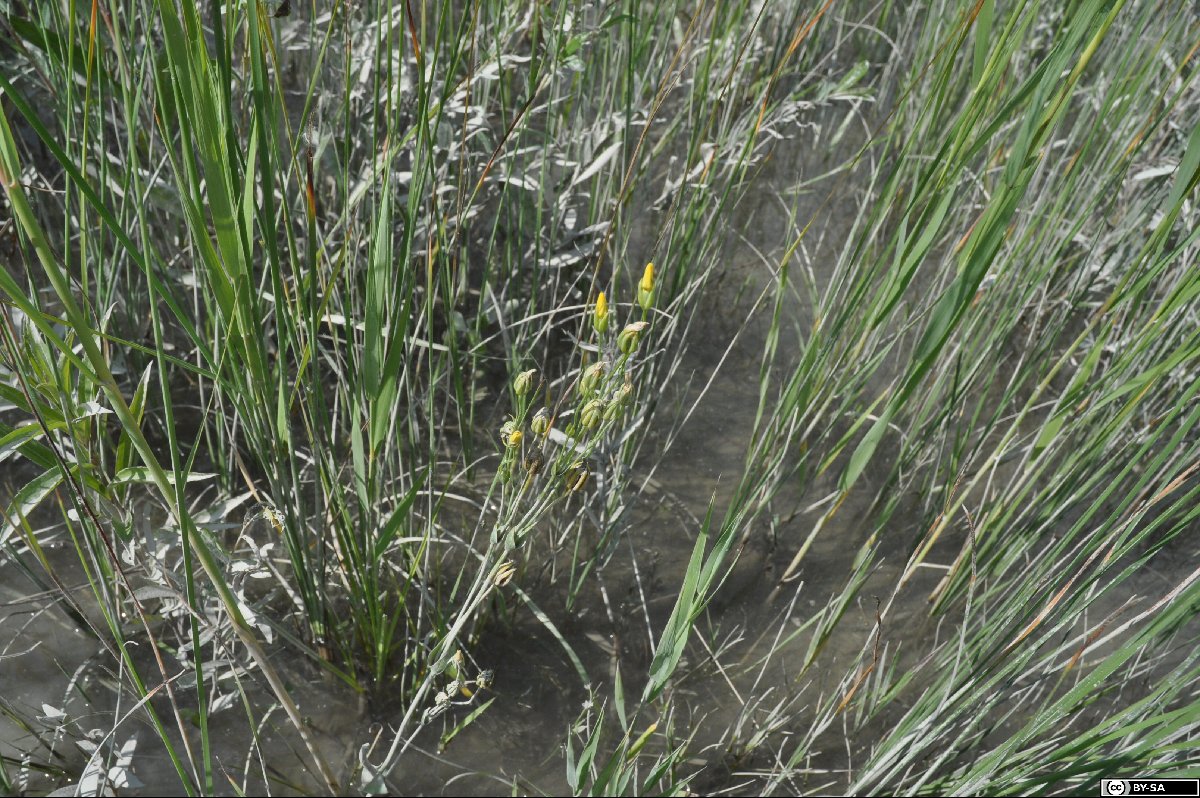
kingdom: Plantae
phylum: Tracheophyta
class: Magnoliopsida
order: Gentianales
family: Gentianaceae
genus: Blackstonia
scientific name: Blackstonia acuminata
